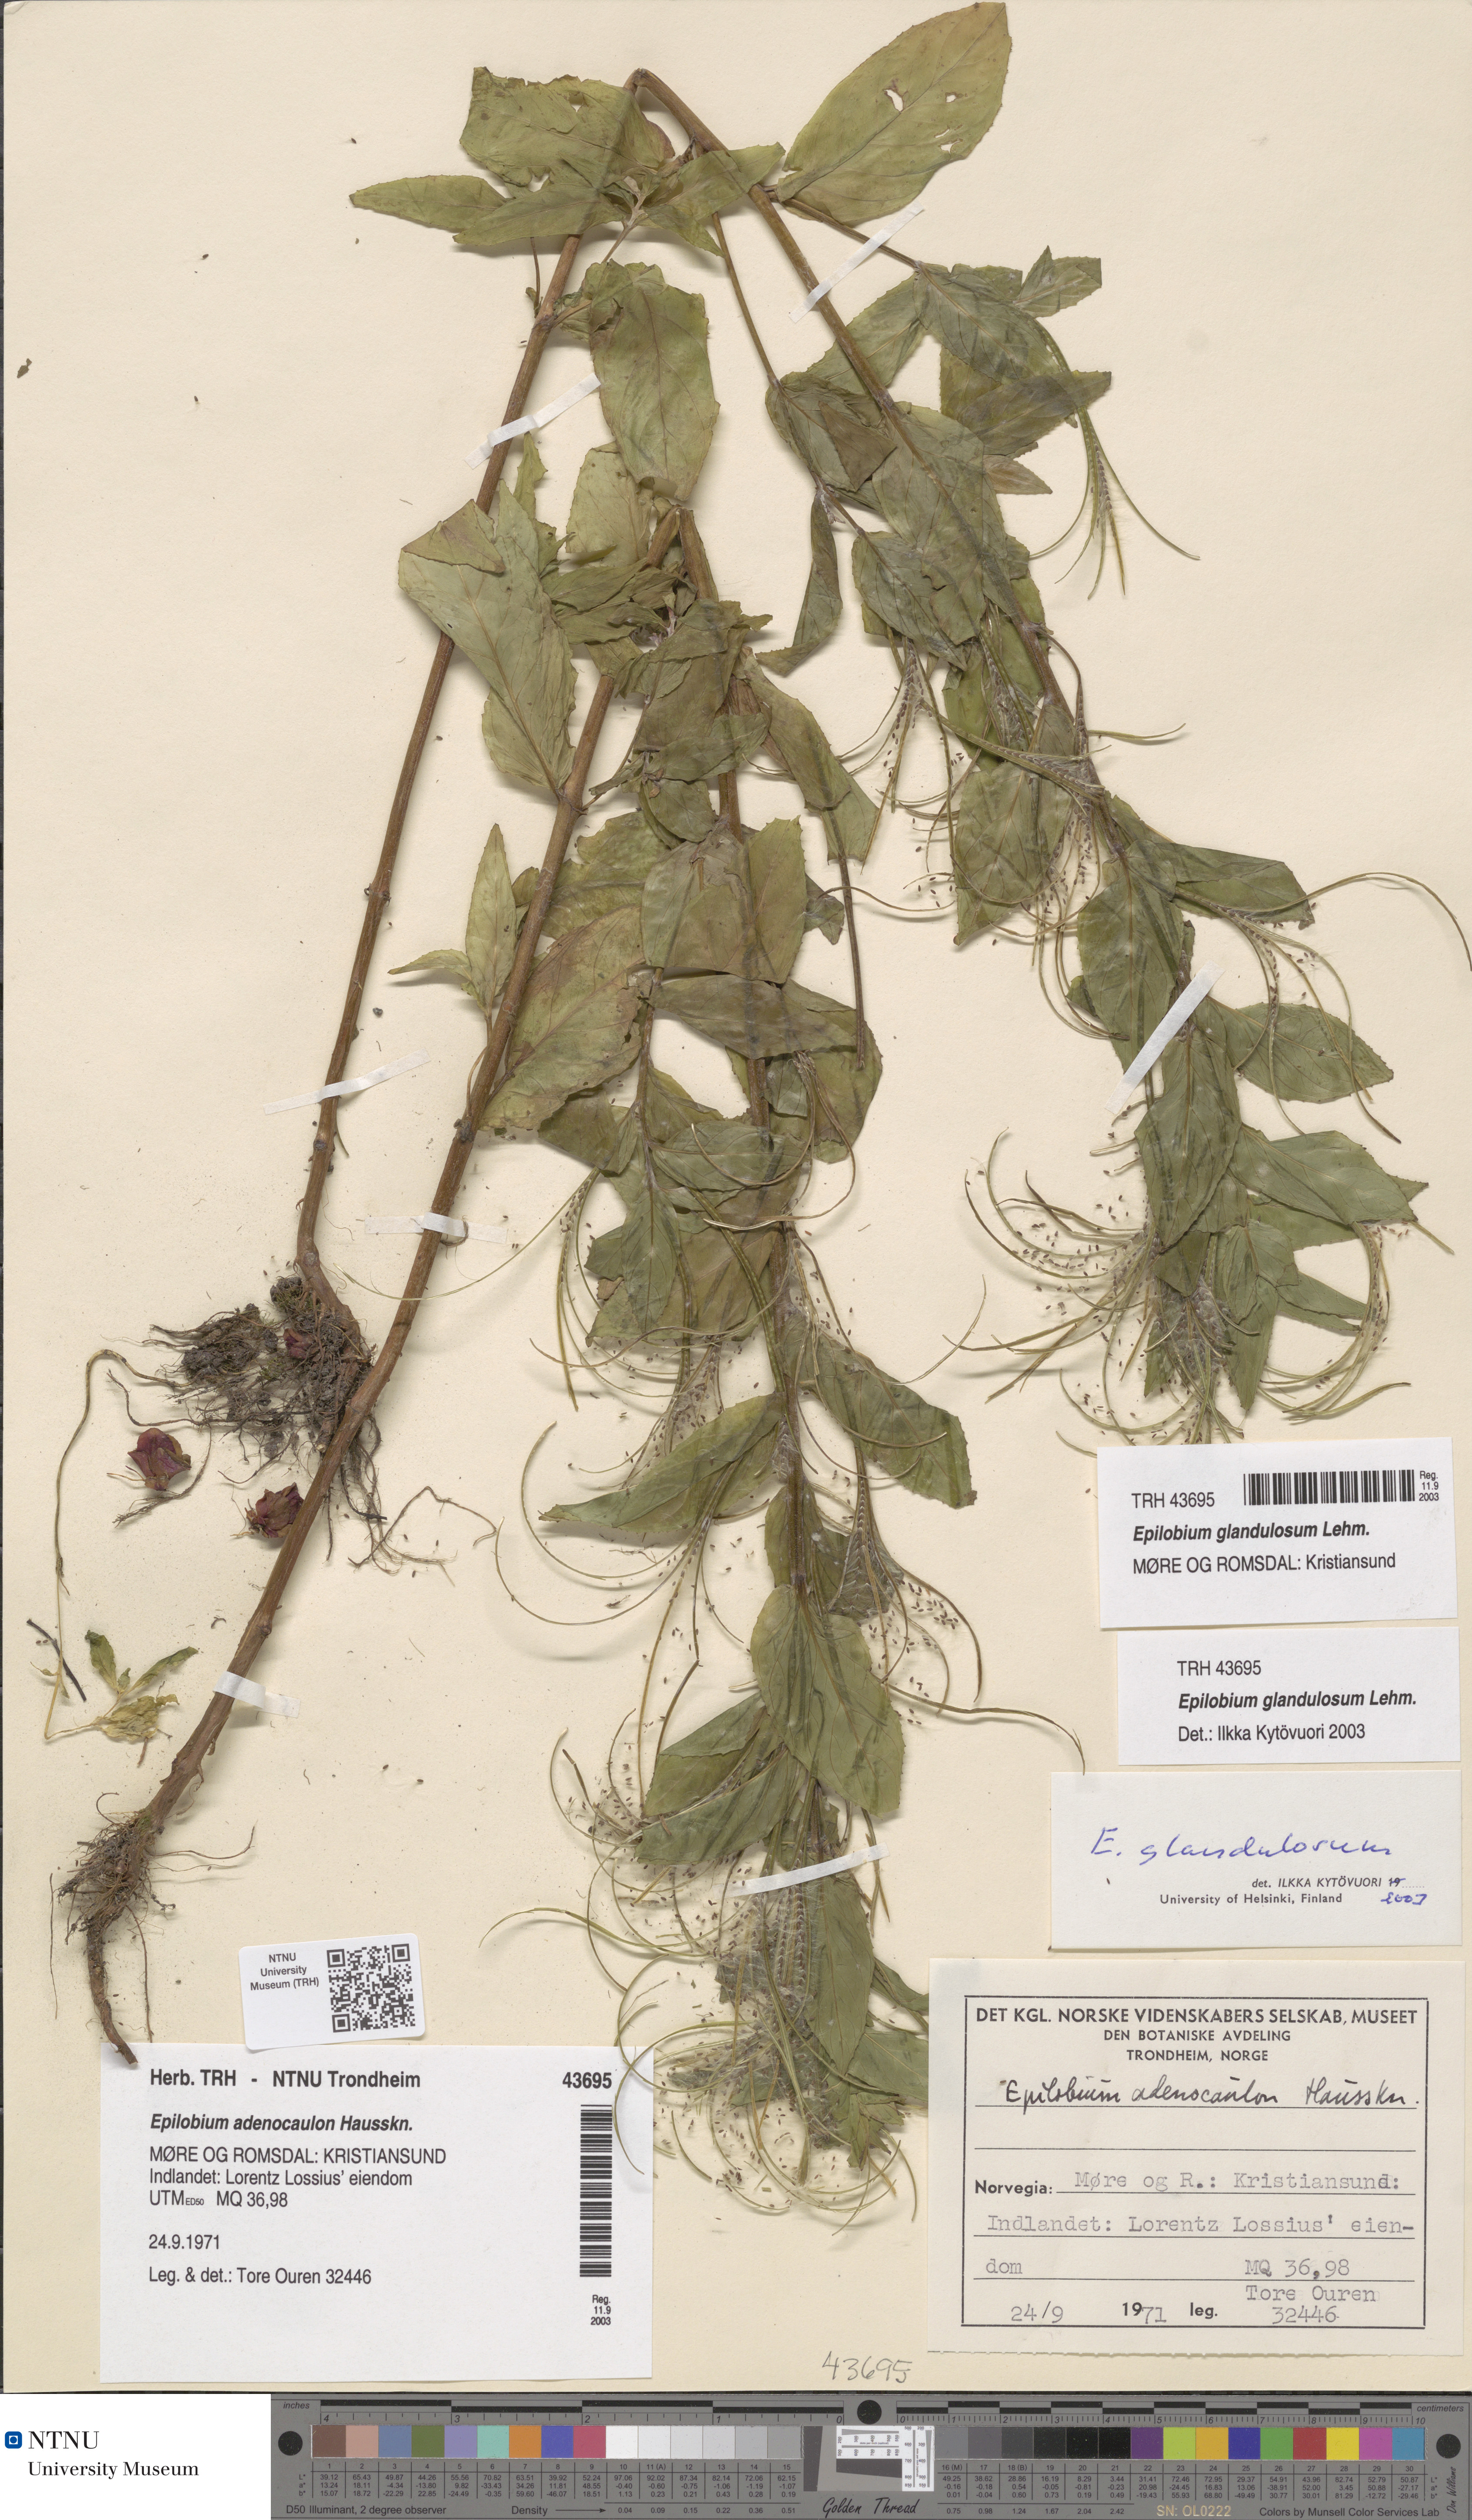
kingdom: Plantae
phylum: Tracheophyta
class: Magnoliopsida
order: Myrtales
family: Onagraceae
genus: Epilobium
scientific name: Epilobium ciliatum
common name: American willowherb
